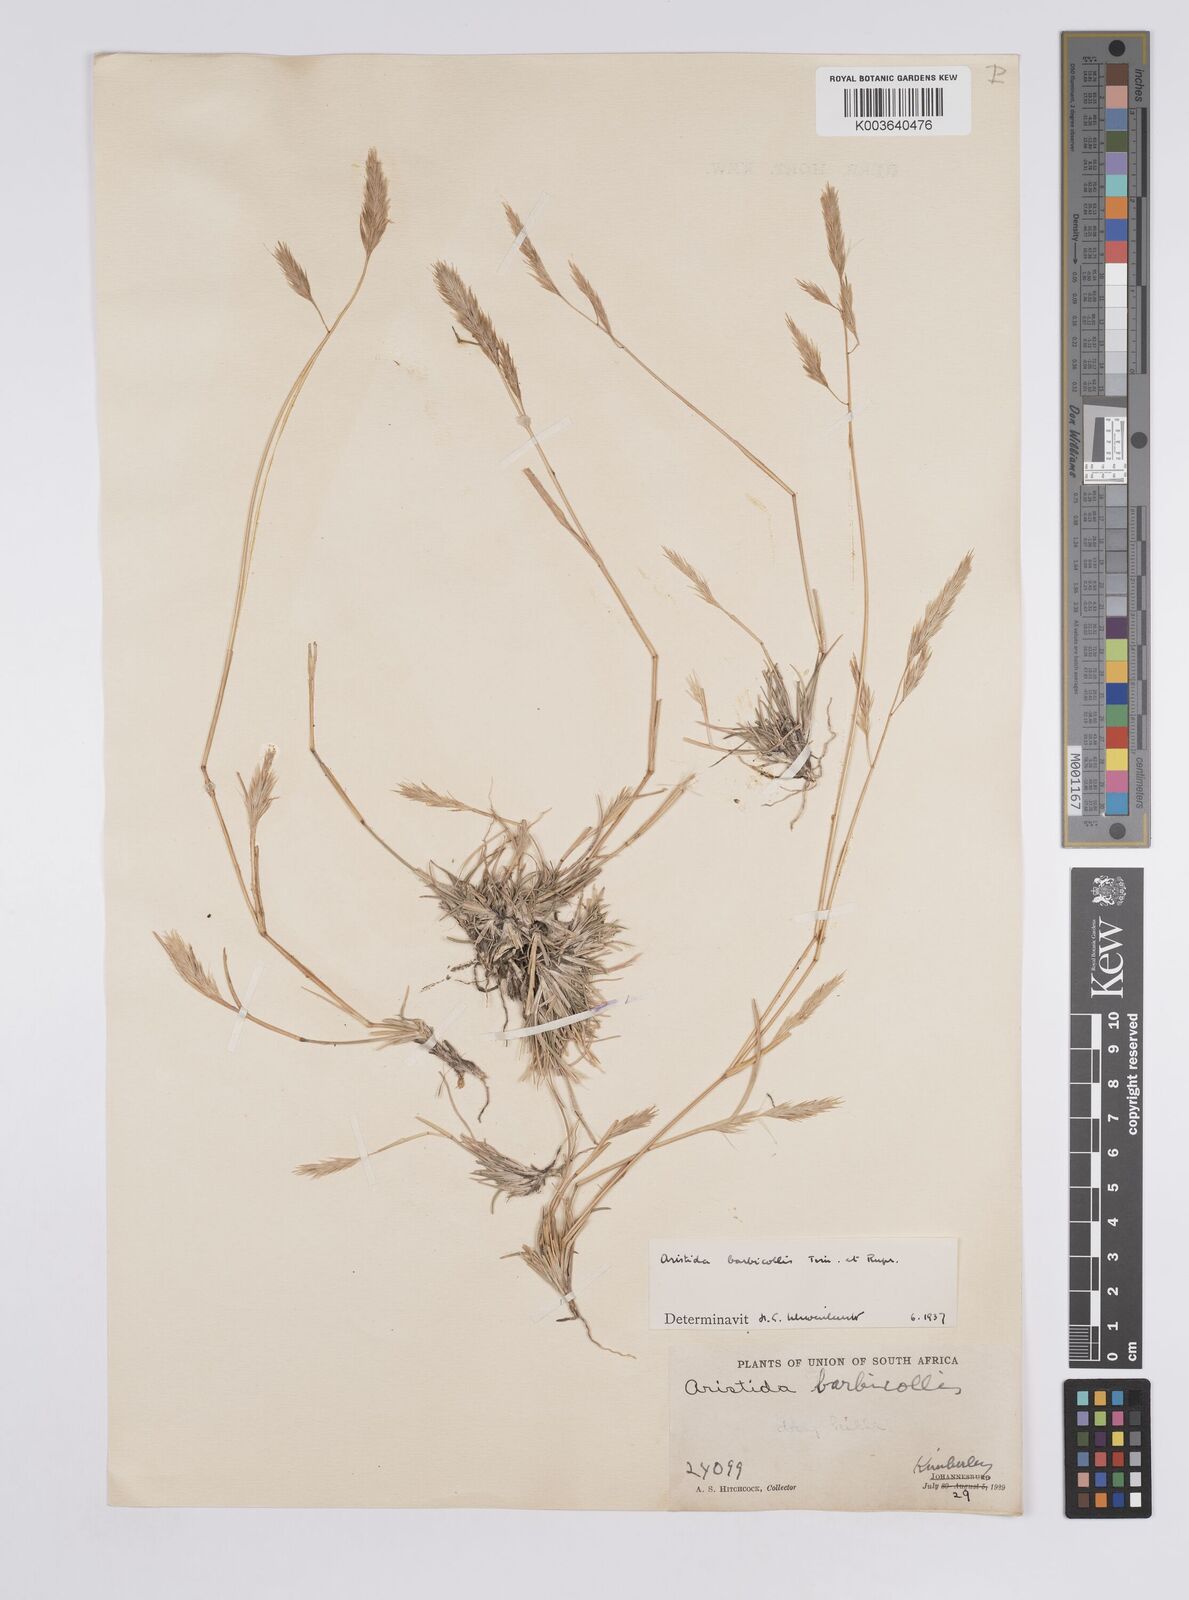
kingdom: Plantae
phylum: Tracheophyta
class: Liliopsida
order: Poales
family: Poaceae
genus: Aristida
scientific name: Aristida barbicollis
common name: Spreading prickle grass
